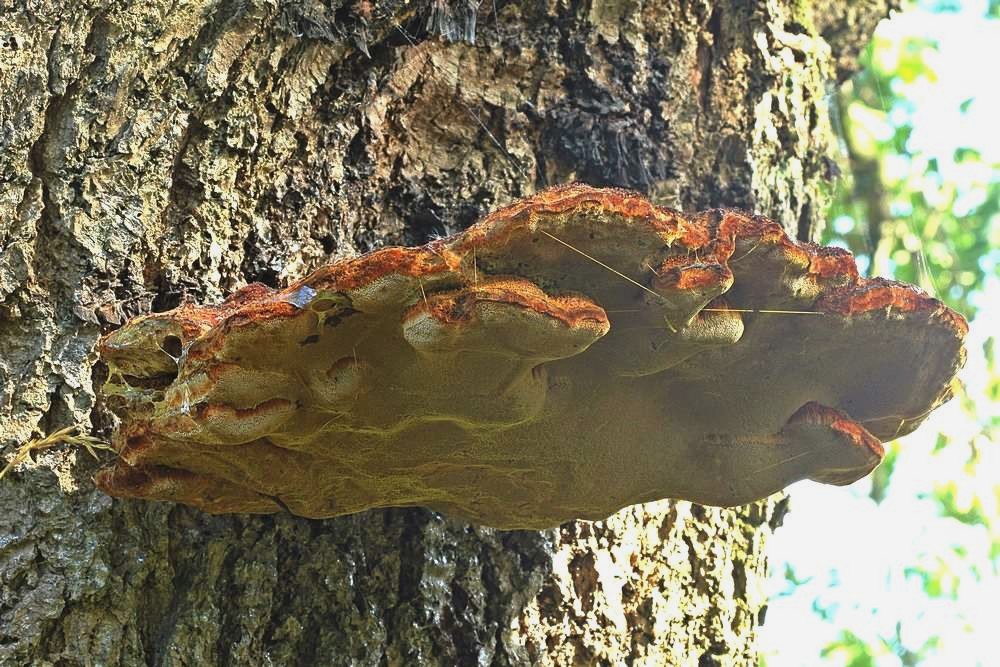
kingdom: Fungi
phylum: Basidiomycota
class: Agaricomycetes
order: Hymenochaetales
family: Hymenochaetaceae
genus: Inonotus
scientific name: Inonotus hispidus
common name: børstehåret spejlporesvamp
